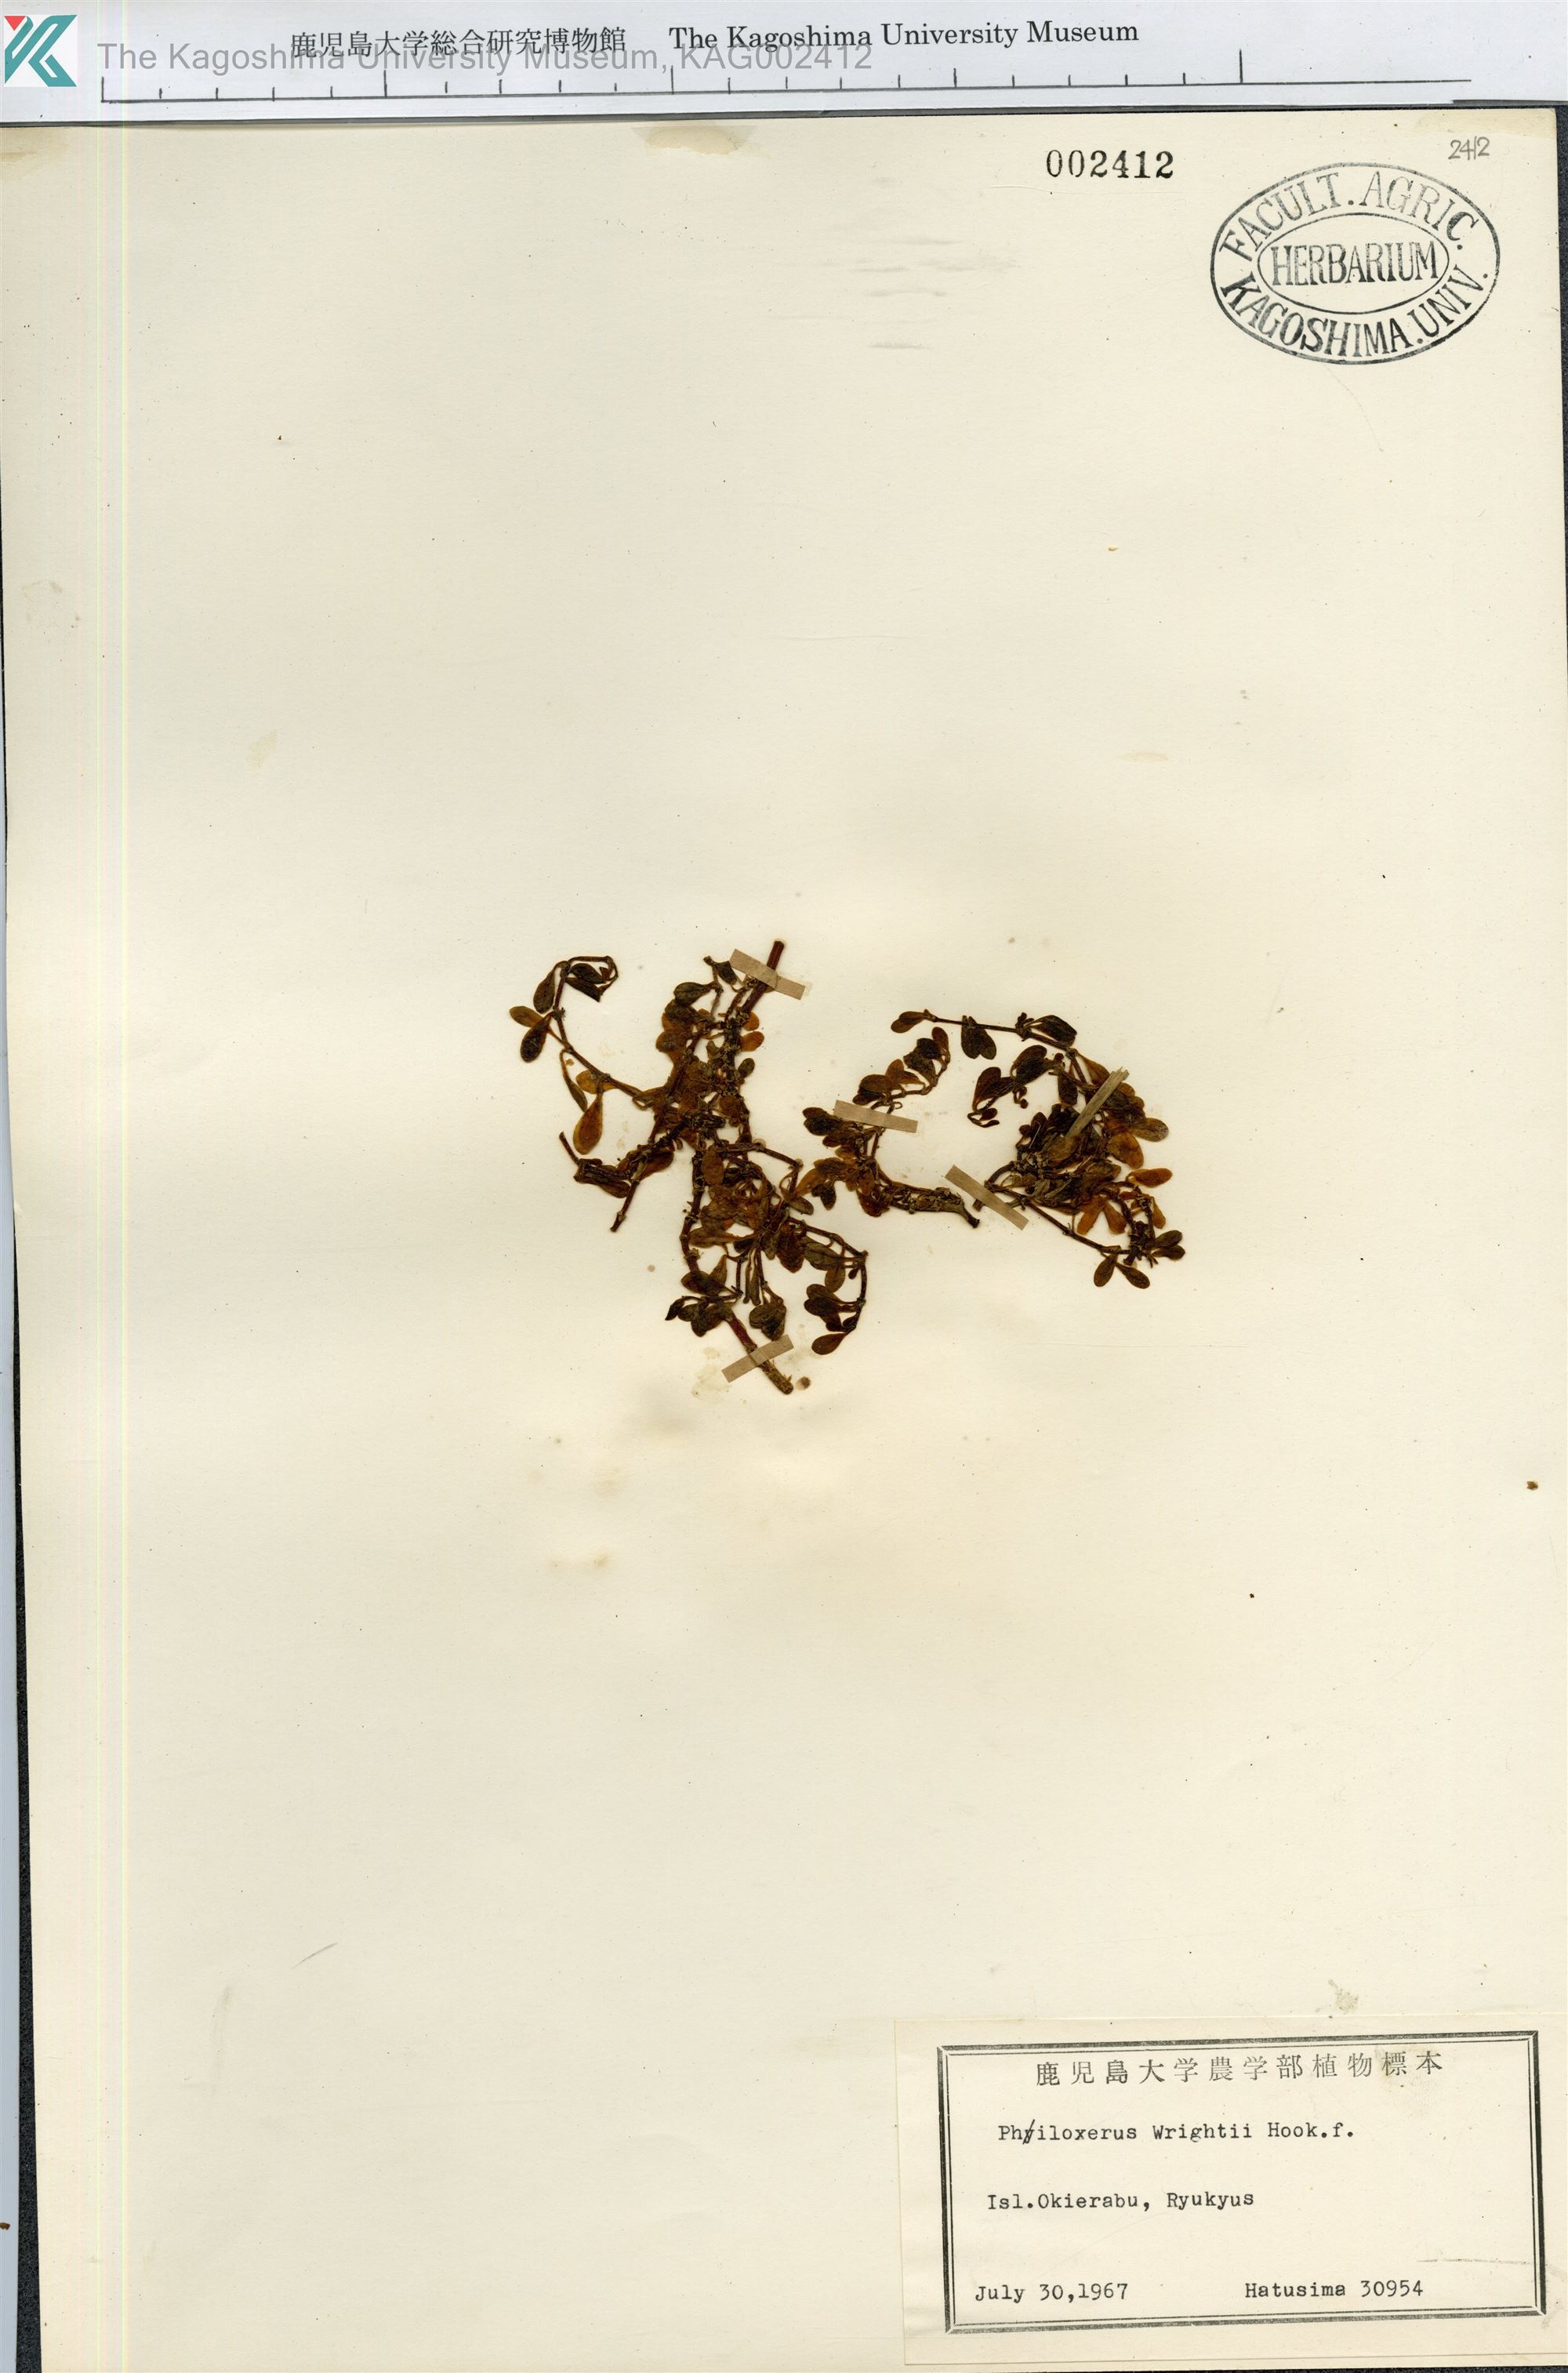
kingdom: Plantae
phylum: Tracheophyta
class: Magnoliopsida
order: Caryophyllales
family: Amaranthaceae
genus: Gomphrena
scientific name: Gomphrena wrightii
